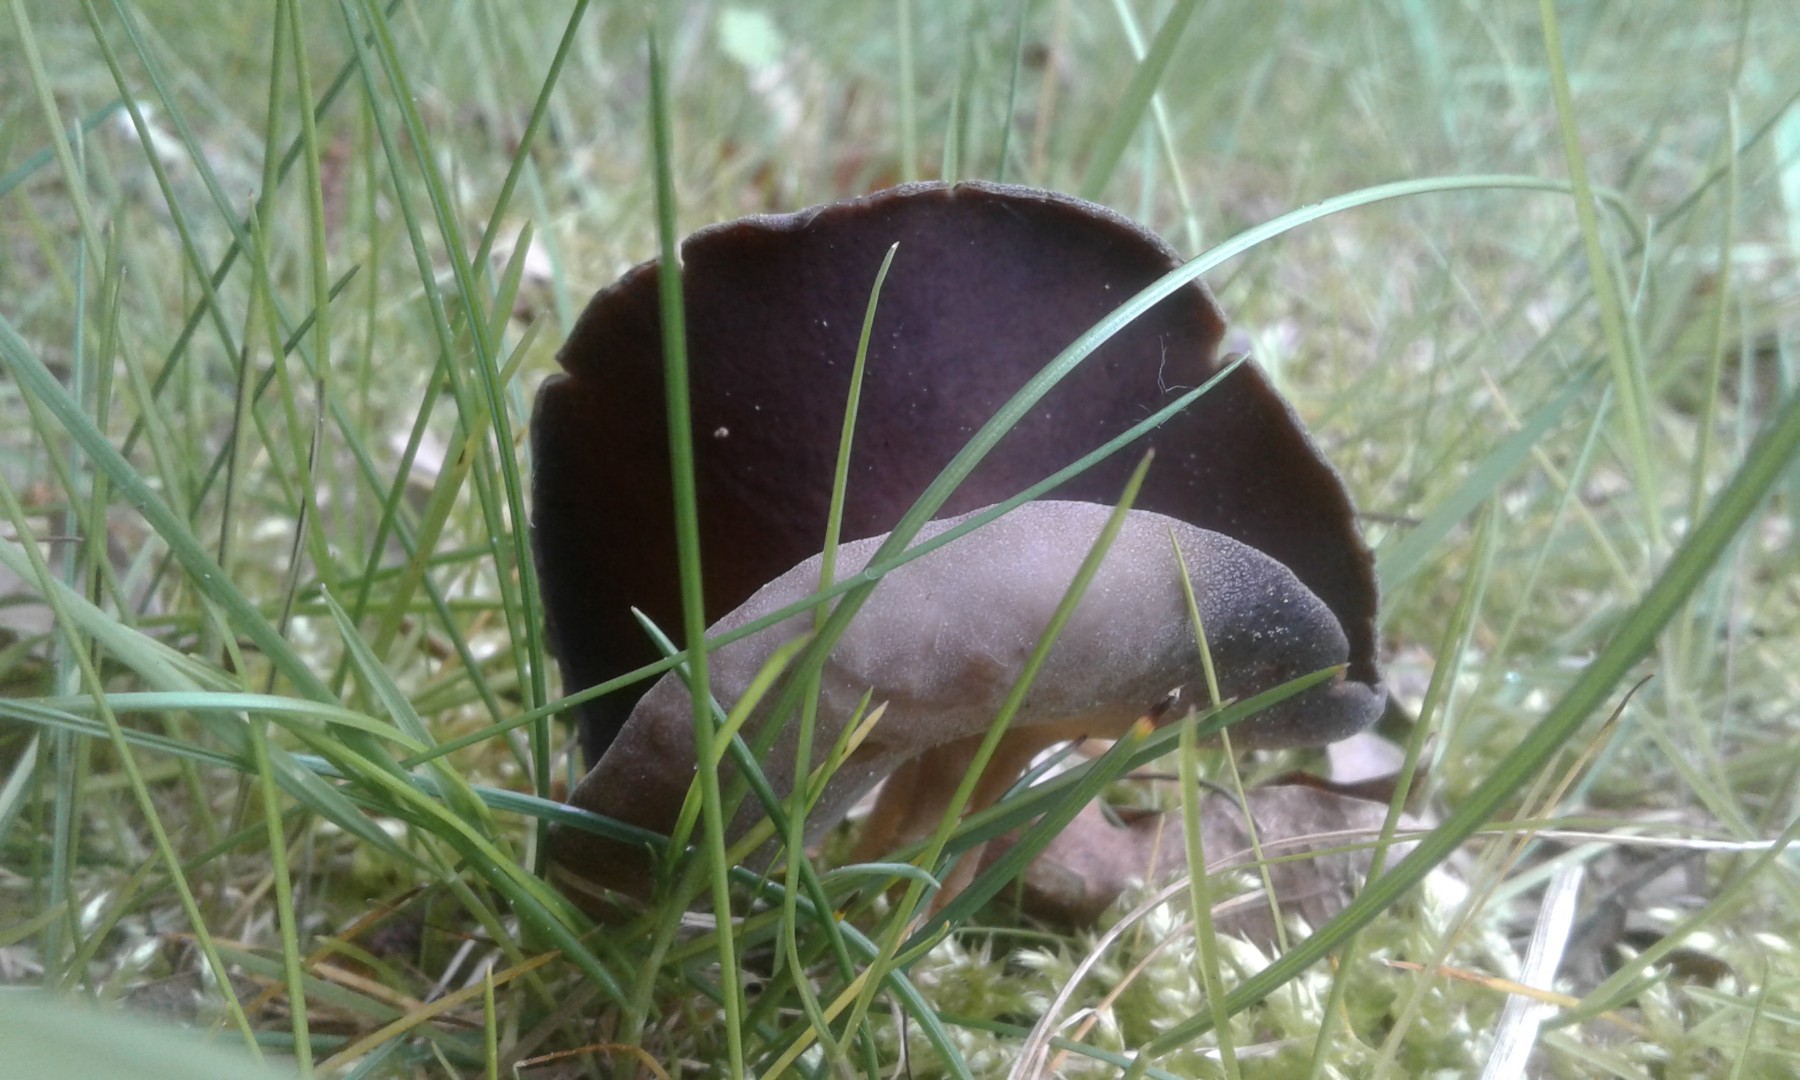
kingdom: Fungi
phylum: Ascomycota
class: Pezizomycetes
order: Pezizales
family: Helvellaceae
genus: Helvella
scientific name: Helvella solitaria
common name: Quélets foldhat
